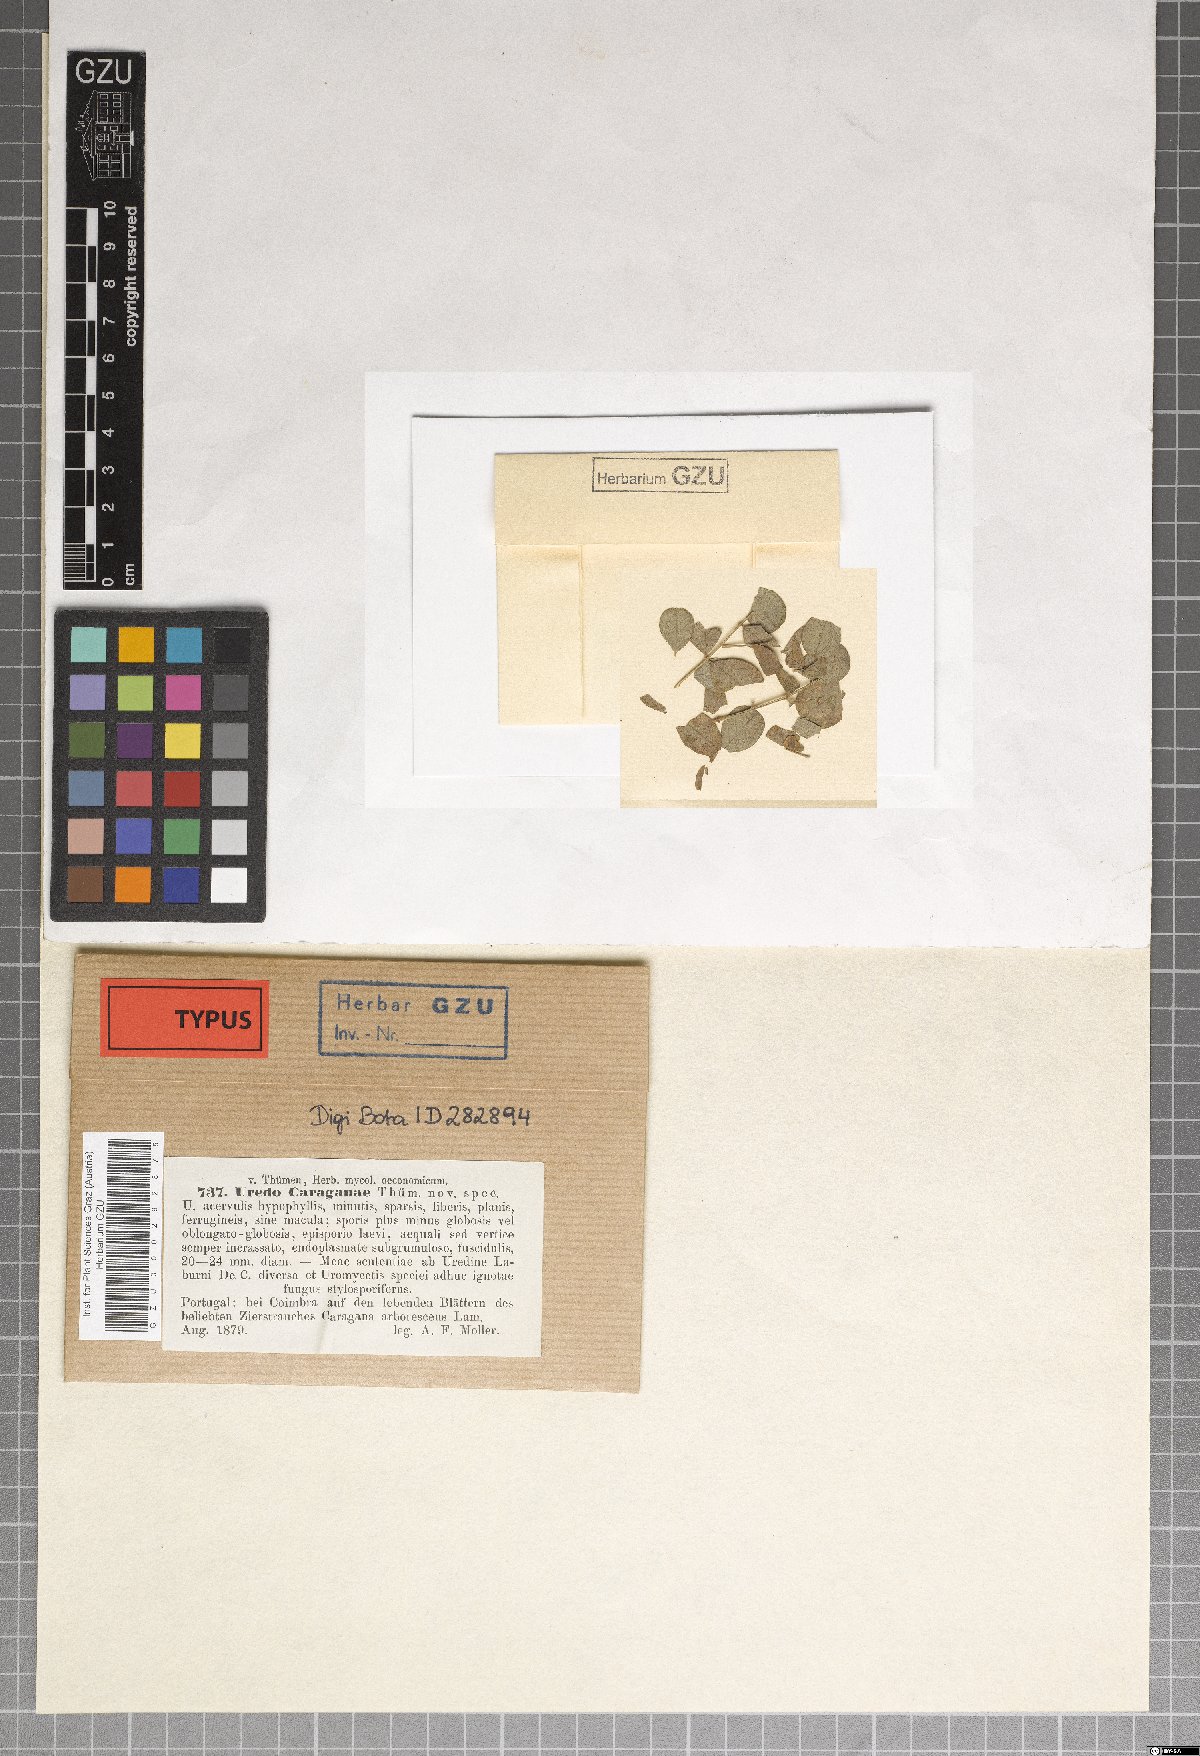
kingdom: Fungi
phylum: Basidiomycota
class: Pucciniomycetes
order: Pucciniales
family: Pucciniaceae
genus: Uromyces
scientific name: Uromyces caraganae
